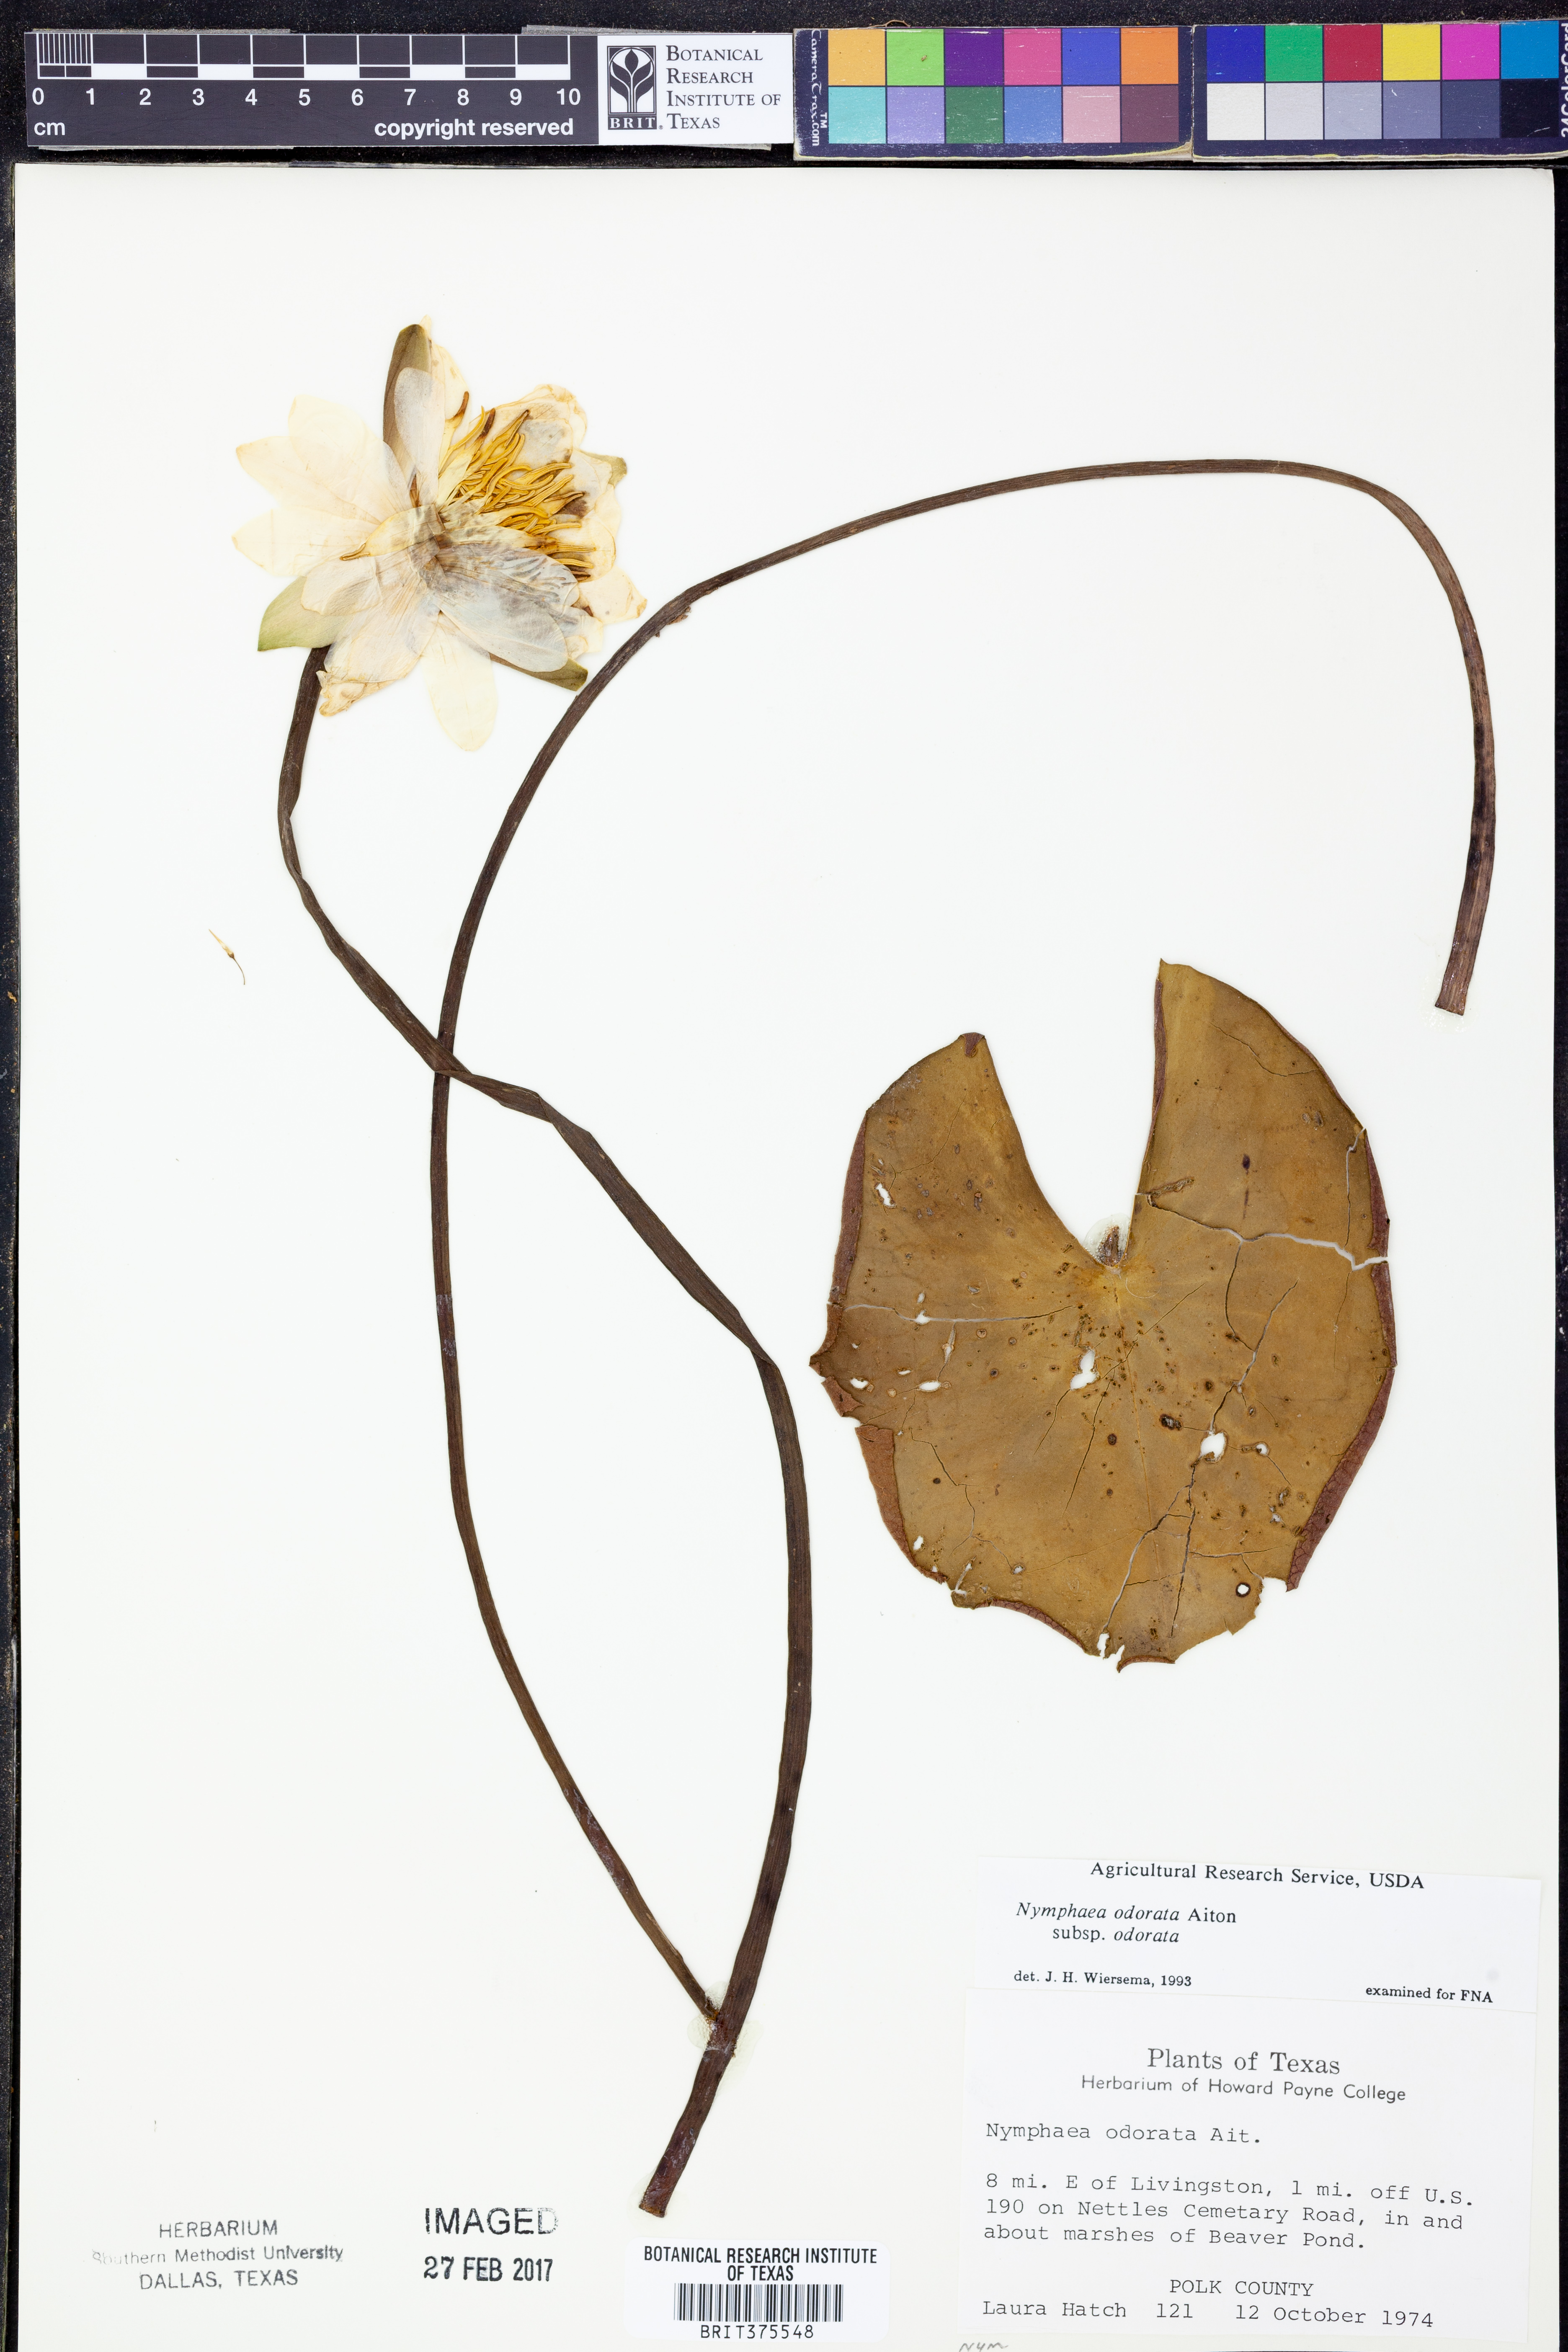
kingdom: Plantae
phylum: Tracheophyta
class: Magnoliopsida
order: Nymphaeales
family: Nymphaeaceae
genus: Nymphaea
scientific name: Nymphaea odorata
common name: Fragrant water-lily
